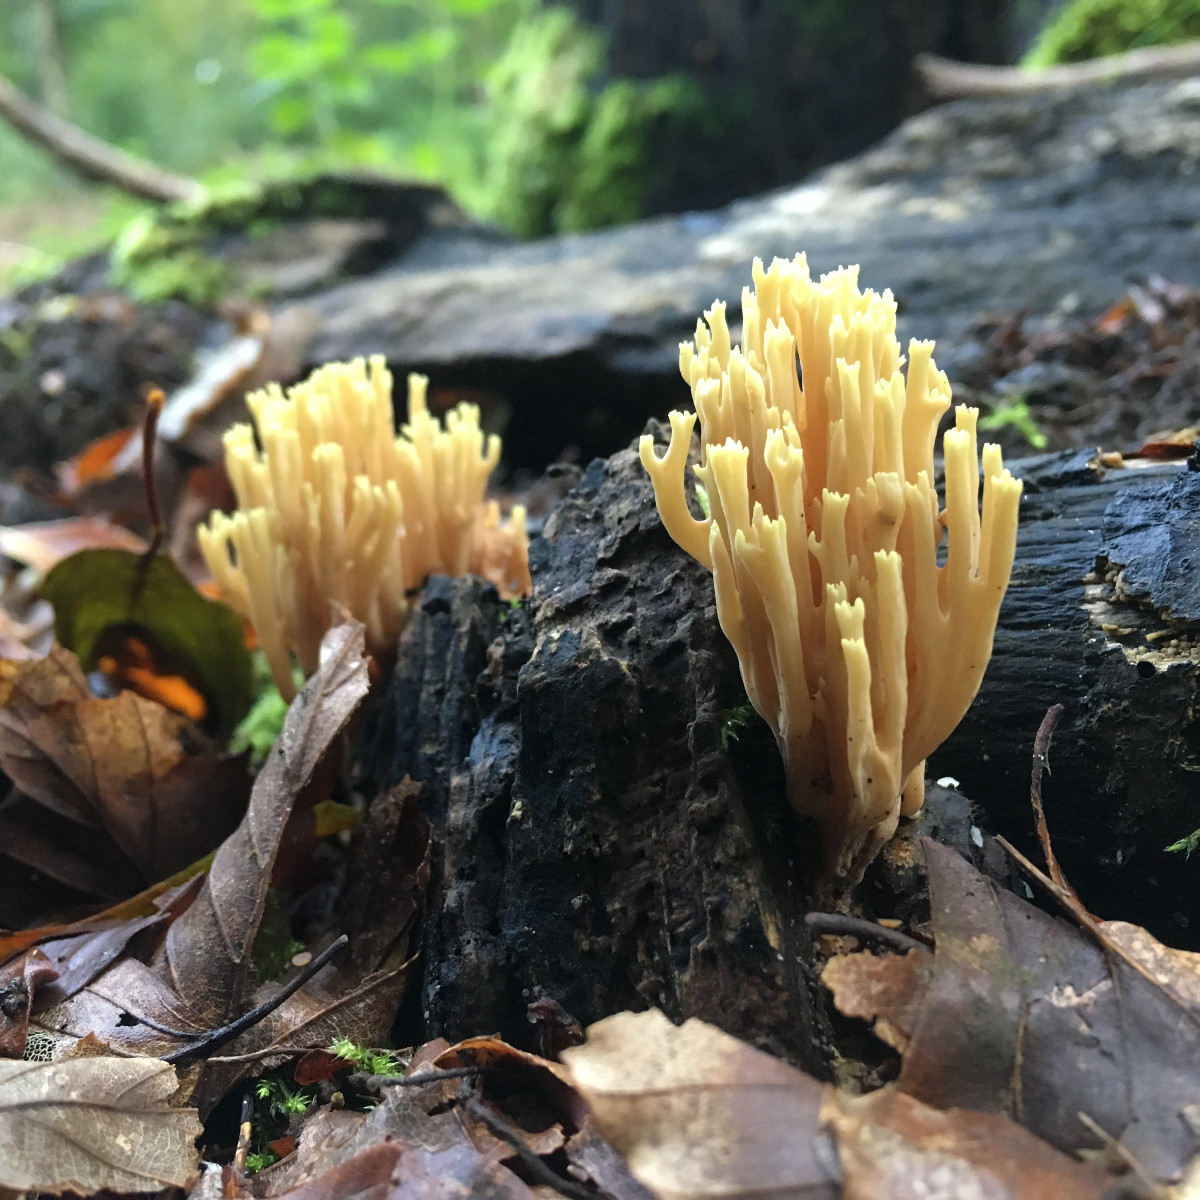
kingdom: Fungi
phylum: Basidiomycota
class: Agaricomycetes
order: Gomphales
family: Gomphaceae
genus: Ramaria
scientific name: Ramaria stricta
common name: rank koralsvamp
